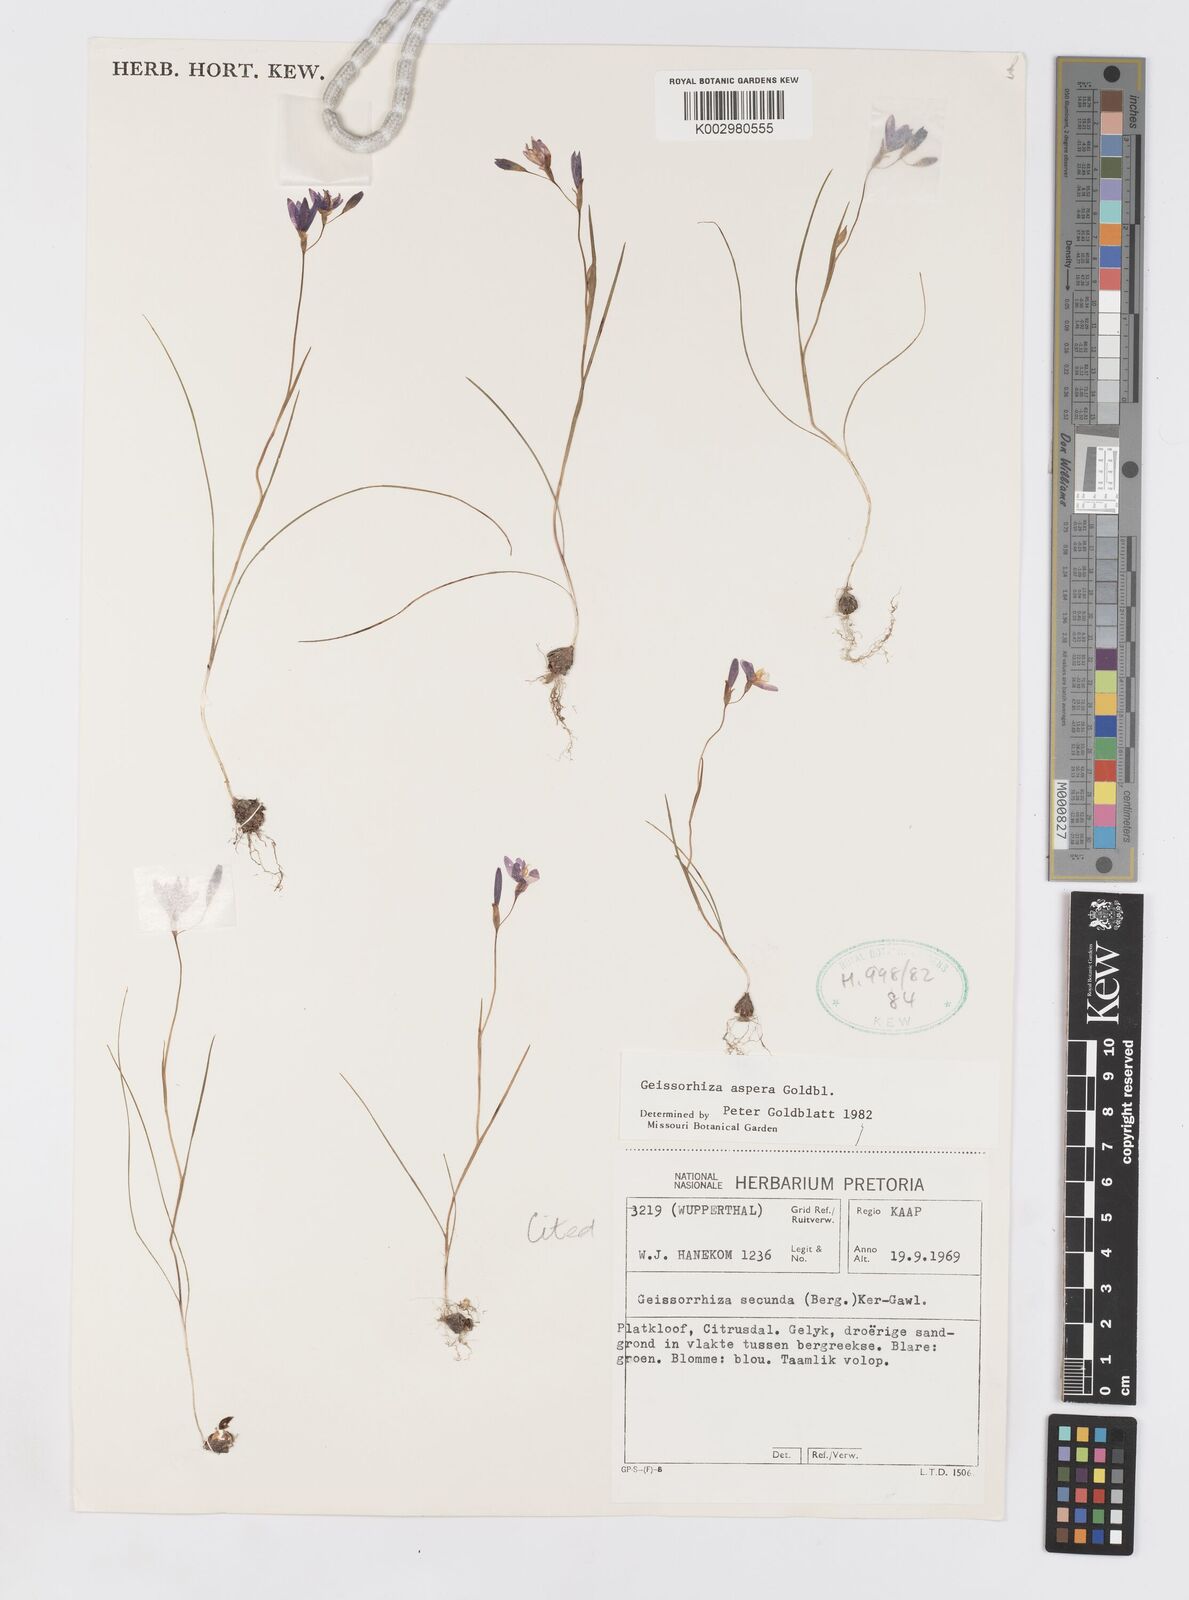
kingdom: Plantae
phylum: Tracheophyta
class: Liliopsida
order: Asparagales
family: Iridaceae
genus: Geissorhiza
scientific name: Geissorhiza aspera
